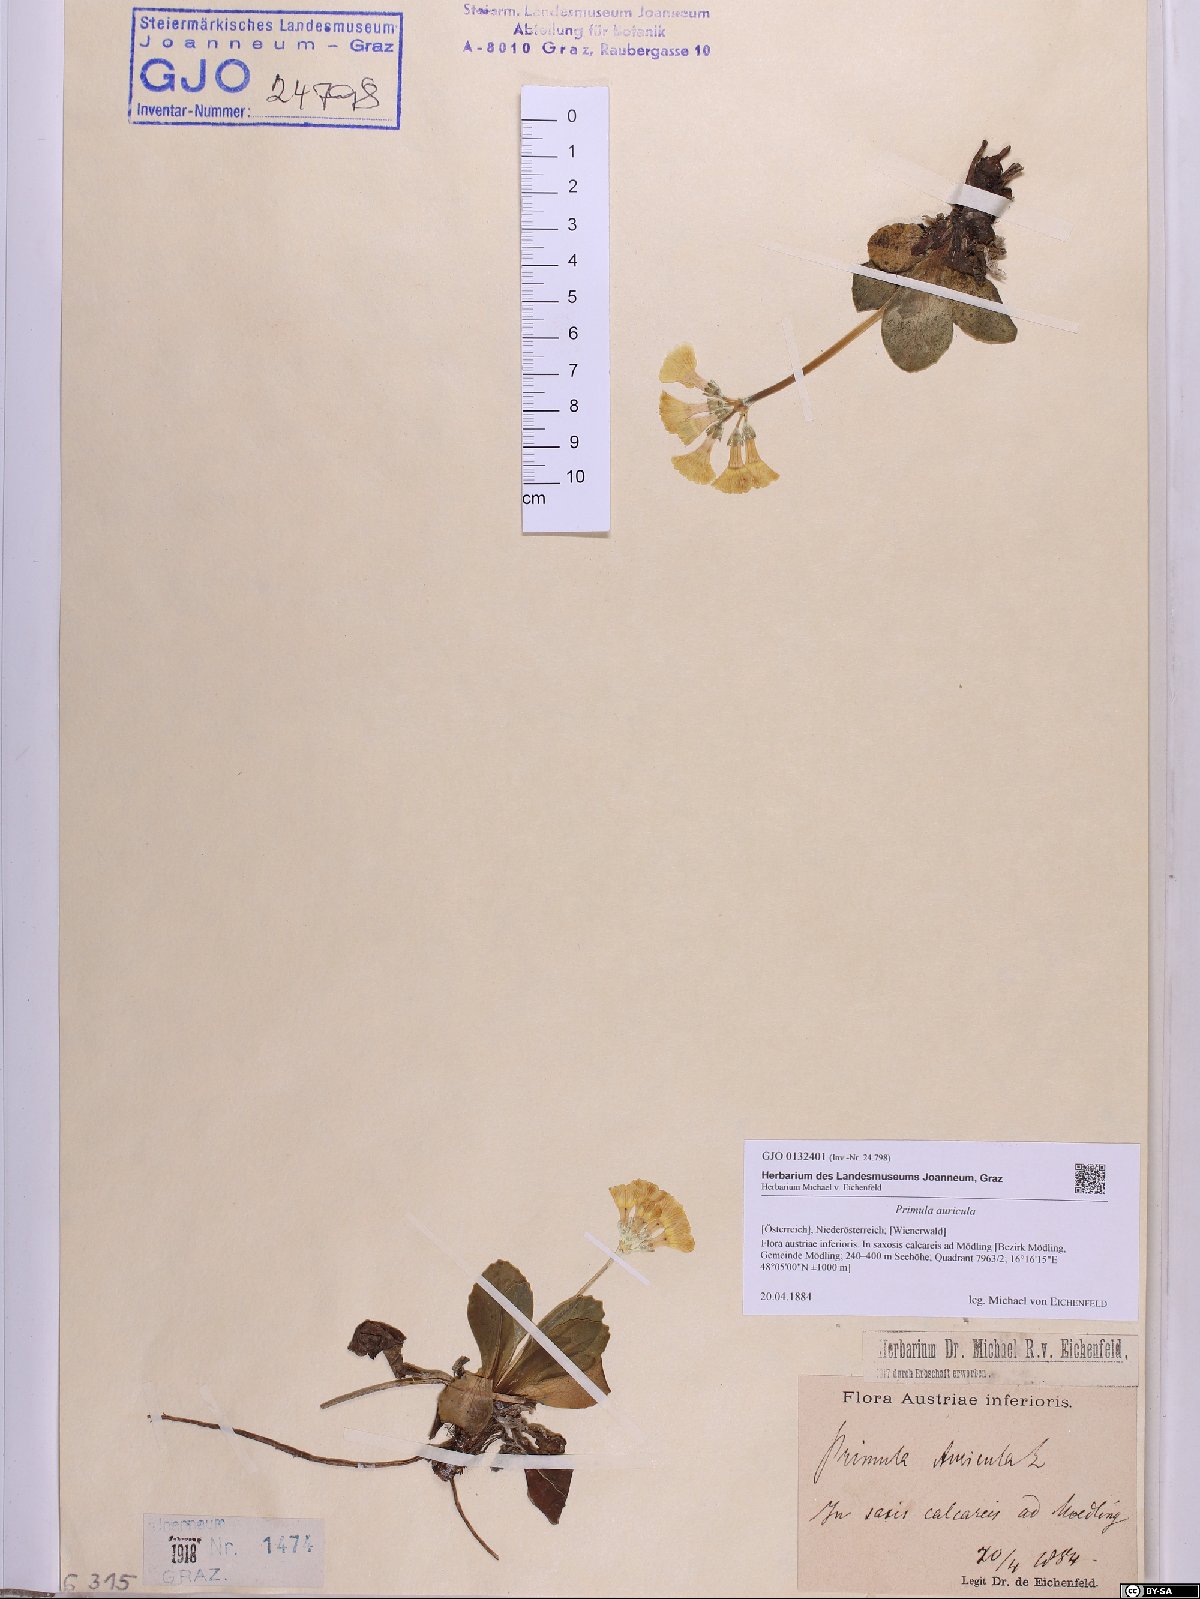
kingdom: Plantae
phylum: Tracheophyta
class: Magnoliopsida
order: Ericales
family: Primulaceae
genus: Primula
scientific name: Primula auricula
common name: Auricula
